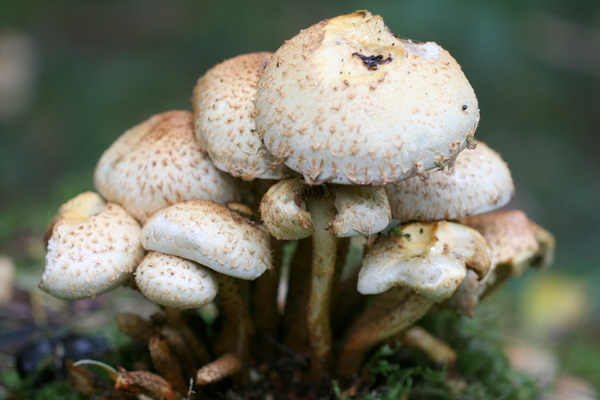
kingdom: Fungi
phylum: Basidiomycota
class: Agaricomycetes
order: Agaricales
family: Strophariaceae
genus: Pholiota
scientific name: Pholiota squarrosa
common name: krumskællet skælhat
